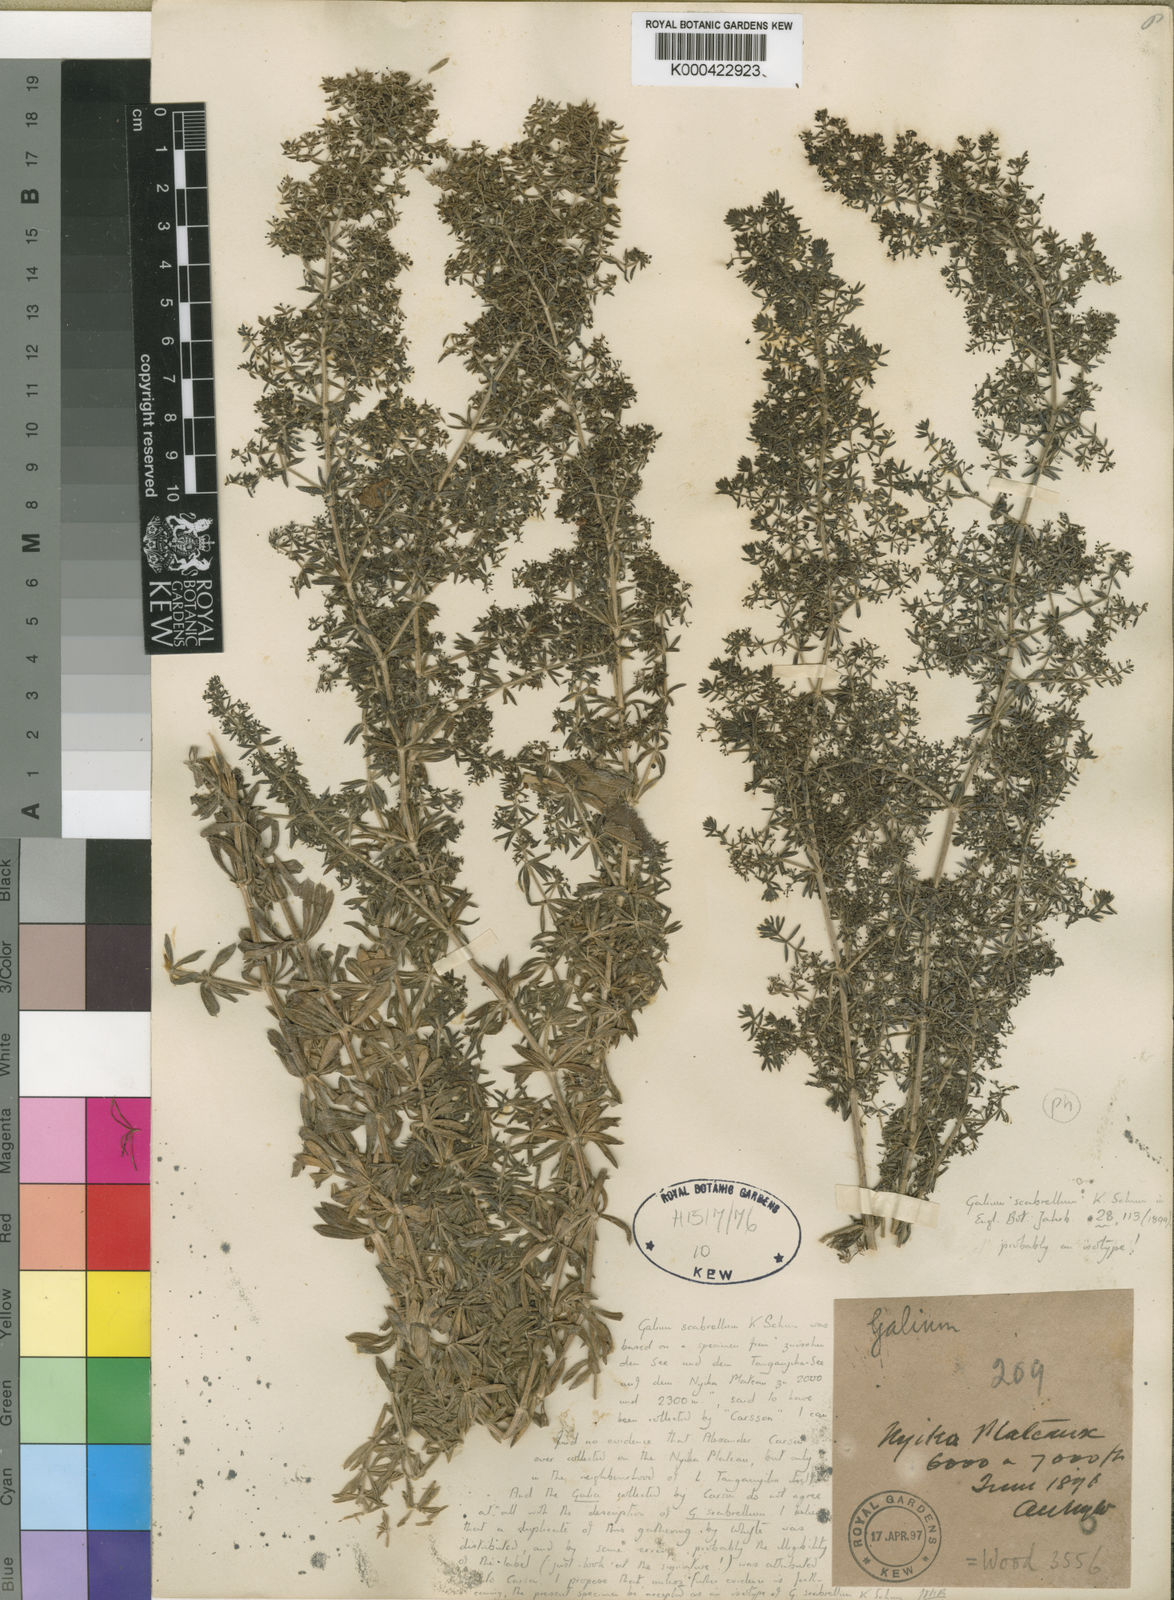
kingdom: Plantae
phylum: Tracheophyta
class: Magnoliopsida
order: Gentianales
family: Rubiaceae
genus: Galium
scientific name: Galium scabrellum
